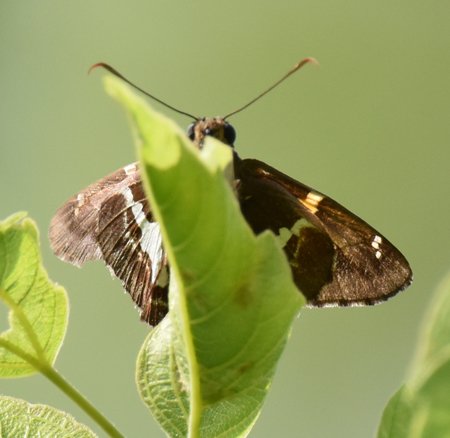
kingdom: Animalia
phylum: Arthropoda
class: Insecta
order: Lepidoptera
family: Hesperiidae
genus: Epargyreus
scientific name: Epargyreus clarus
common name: Silver-spotted Skipper
